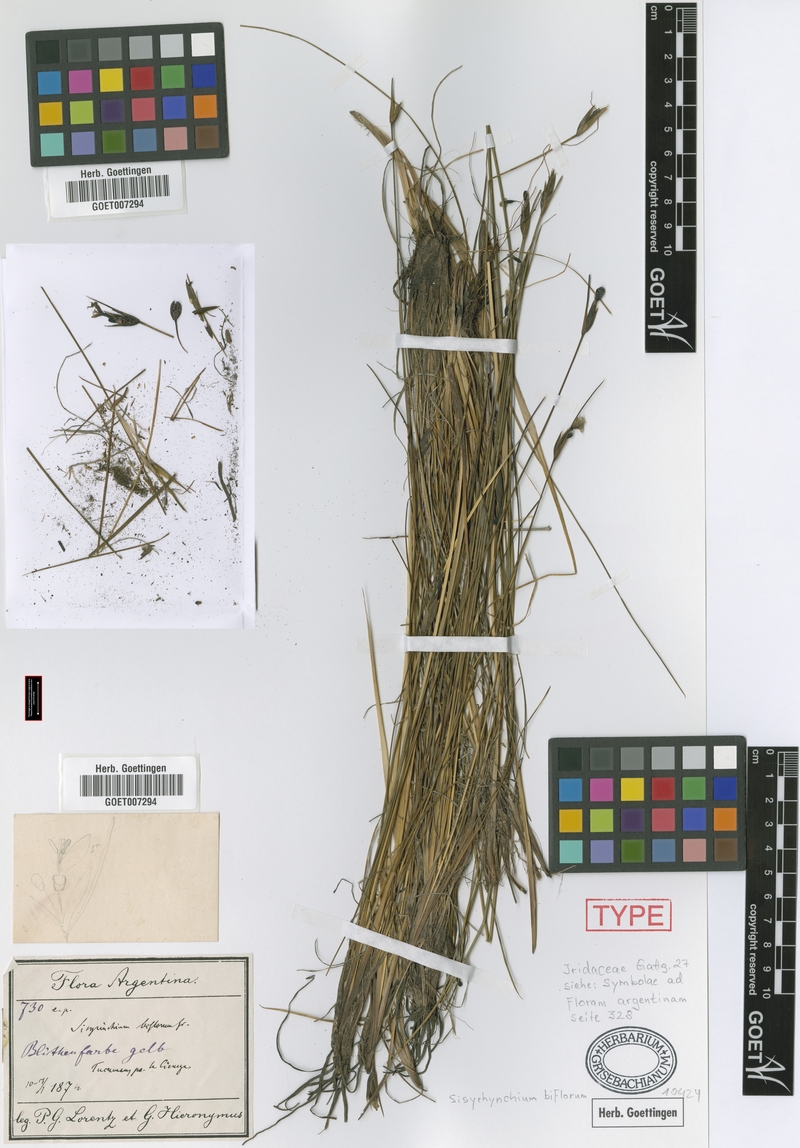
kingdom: Plantae
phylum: Tracheophyta
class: Liliopsida
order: Asparagales
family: Iridaceae
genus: Sisyrinchium
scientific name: Sisyrinchium biflorum
